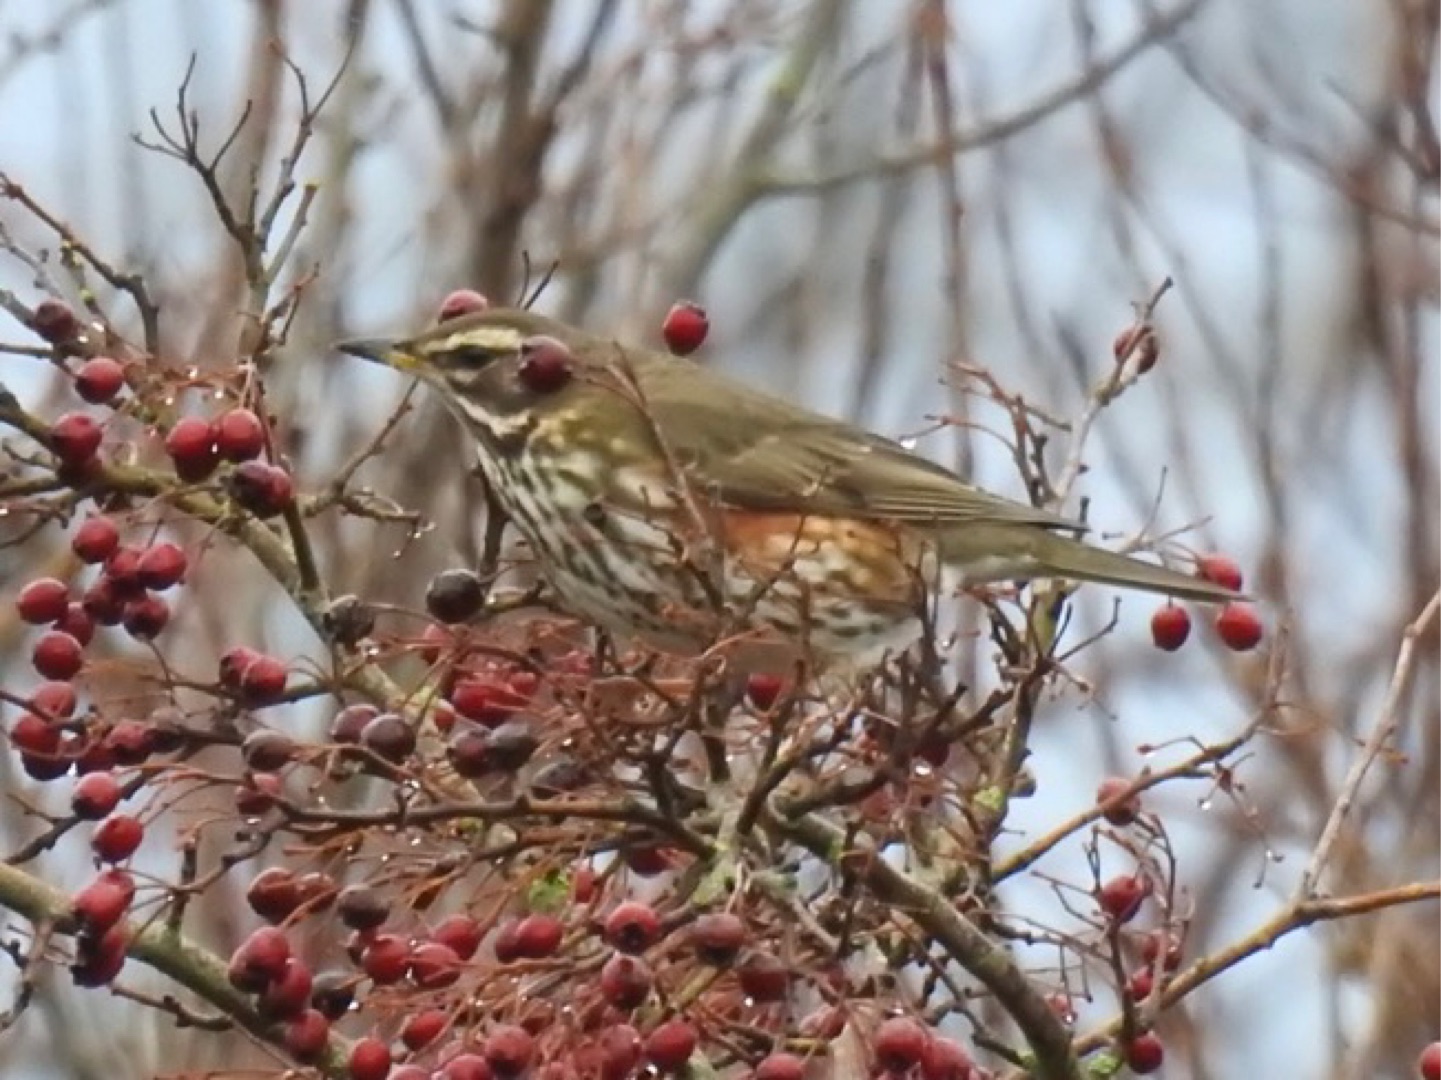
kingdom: Animalia
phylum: Chordata
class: Aves
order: Passeriformes
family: Turdidae
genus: Turdus
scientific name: Turdus iliacus
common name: Vindrossel
